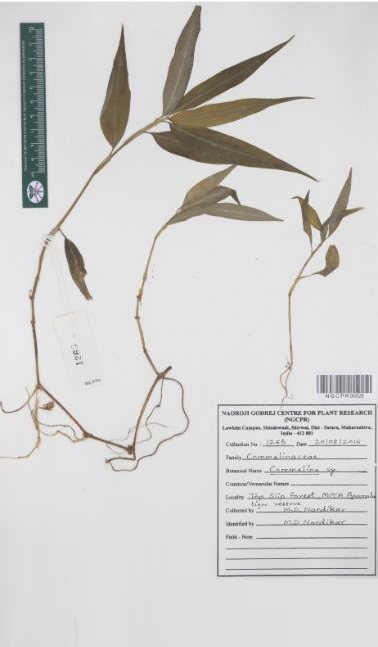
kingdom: Plantae
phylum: Tracheophyta
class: Liliopsida
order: Commelinales
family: Commelinaceae
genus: Commelina
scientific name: Commelina
